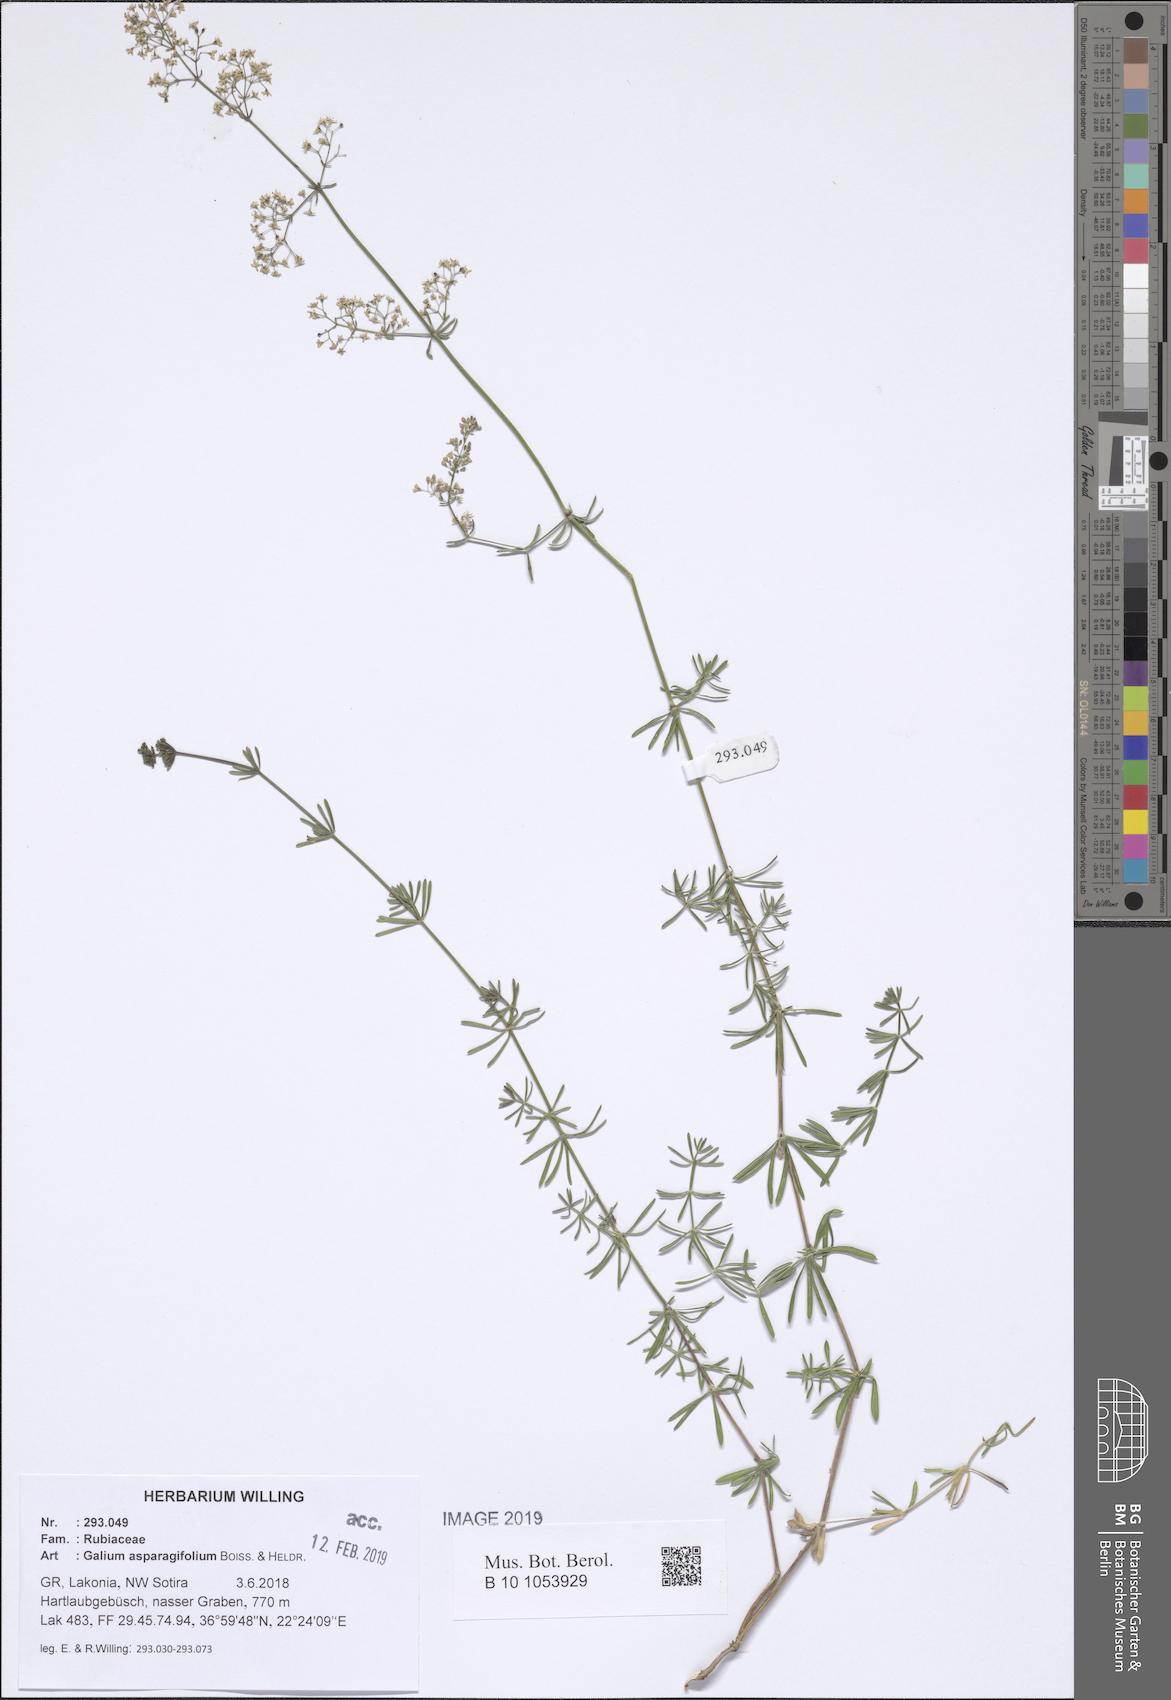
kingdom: Plantae
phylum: Tracheophyta
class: Magnoliopsida
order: Gentianales
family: Rubiaceae
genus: Galium
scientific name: Galium asparagifolium
